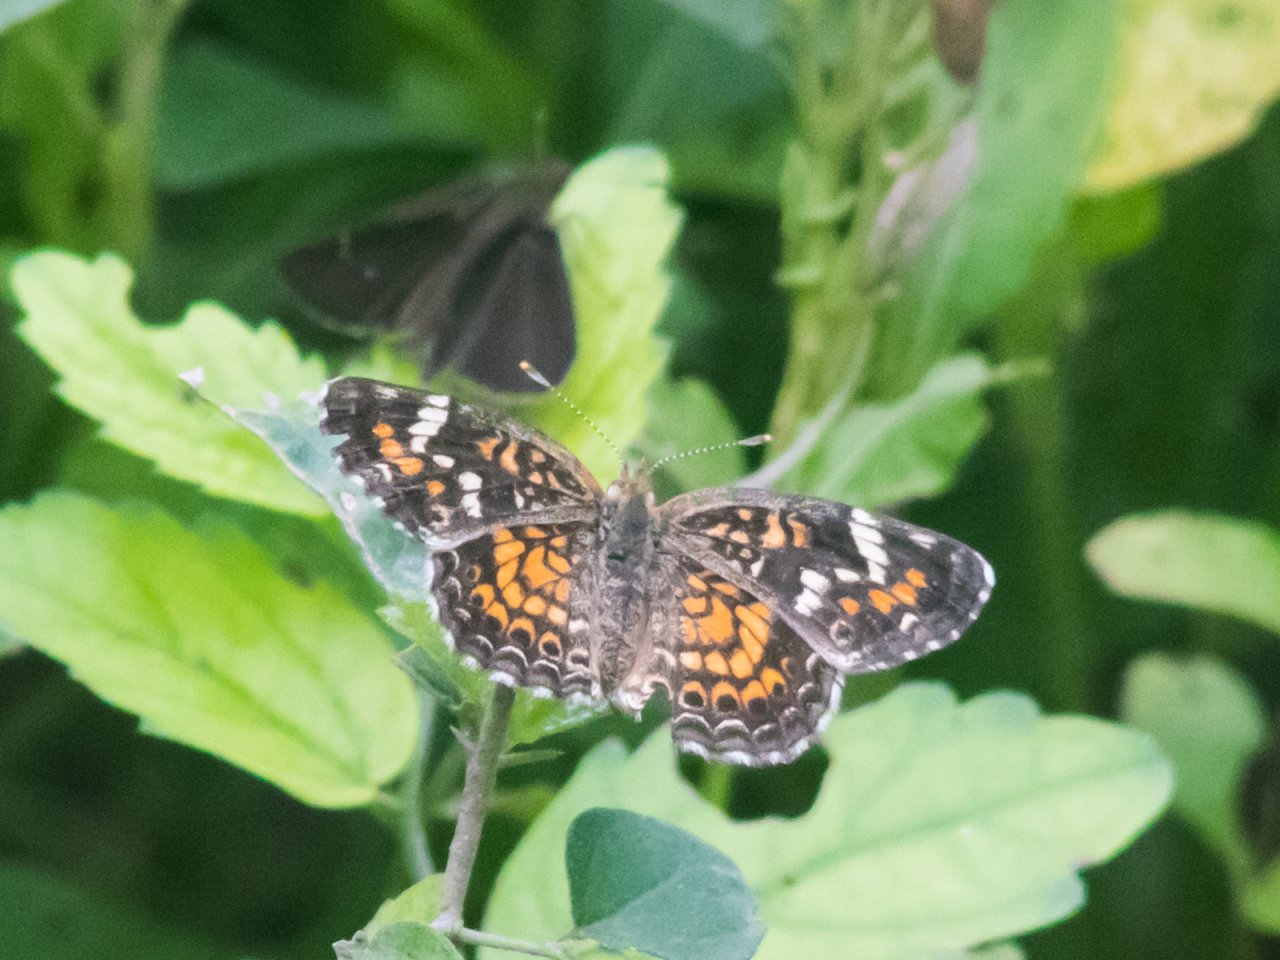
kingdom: Animalia
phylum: Arthropoda
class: Insecta
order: Lepidoptera
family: Nymphalidae
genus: Phyciodes
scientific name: Phyciodes phaon
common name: Phaon Crescent
